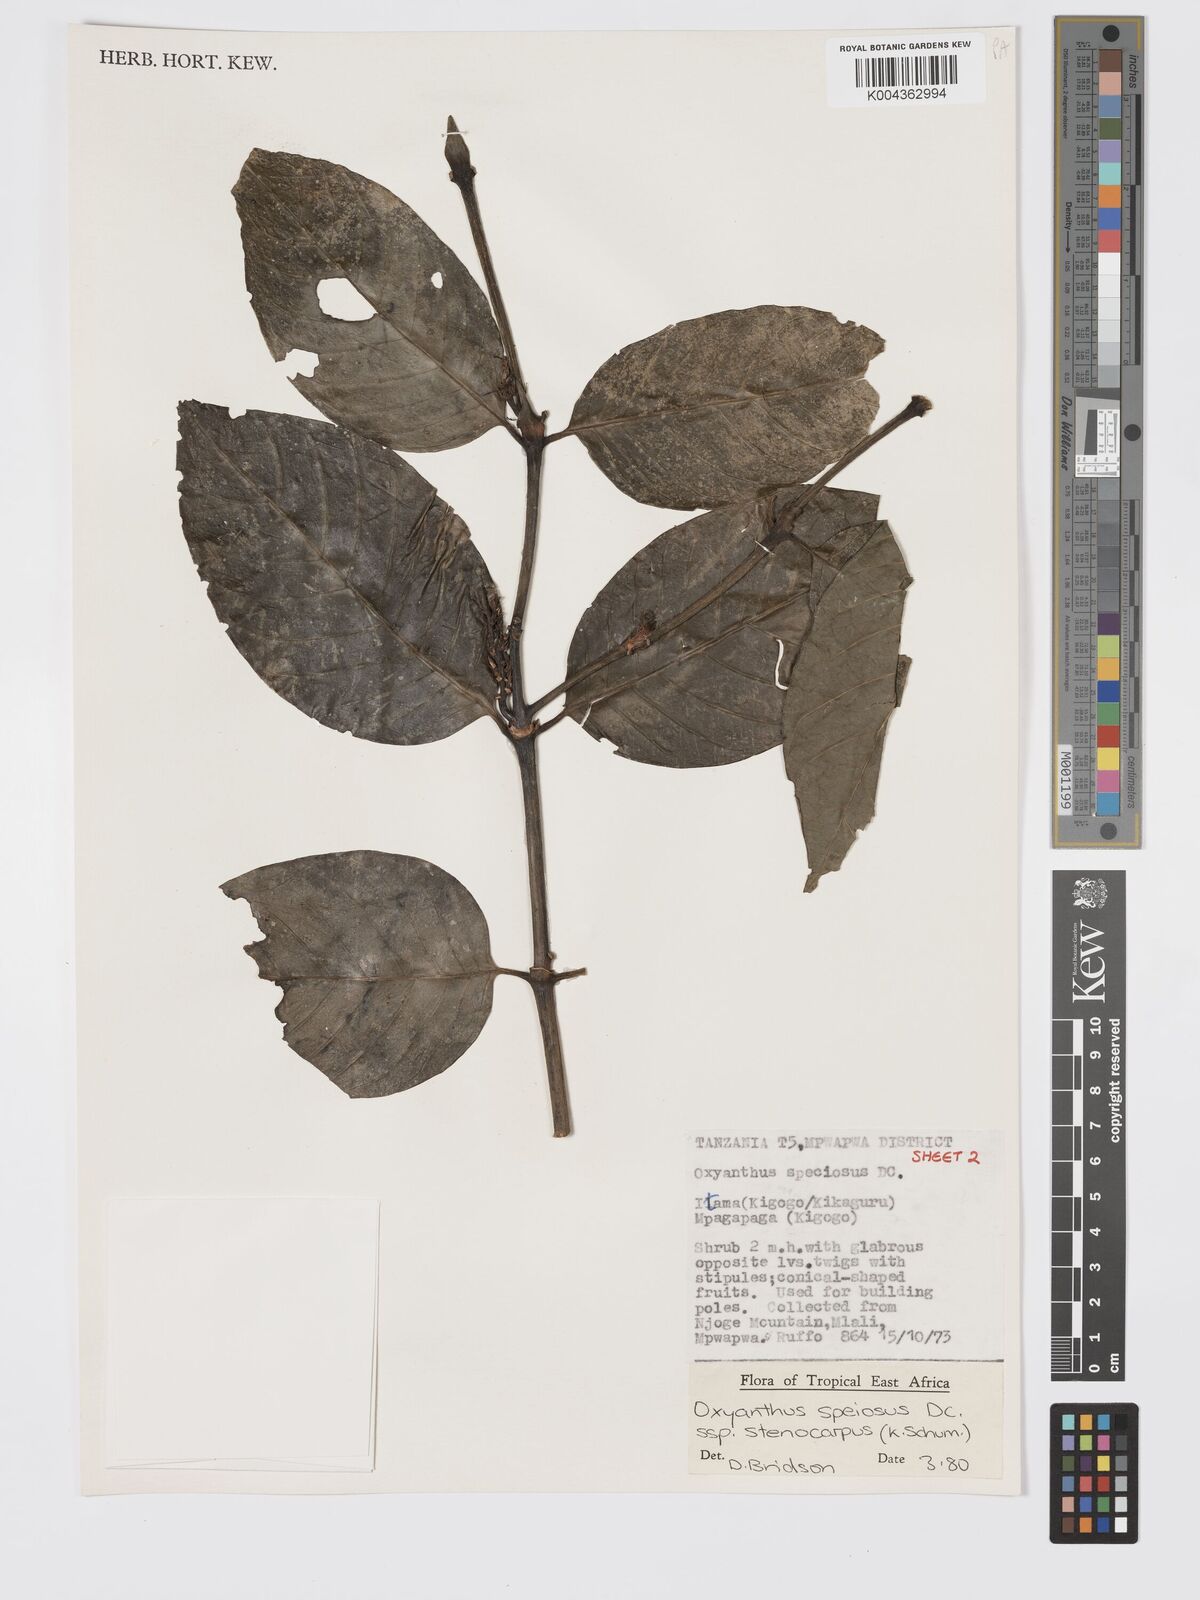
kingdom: Plantae
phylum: Tracheophyta
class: Magnoliopsida
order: Gentianales
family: Rubiaceae
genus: Oxyanthus
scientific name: Oxyanthus speciosus
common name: Whipstick loquat
